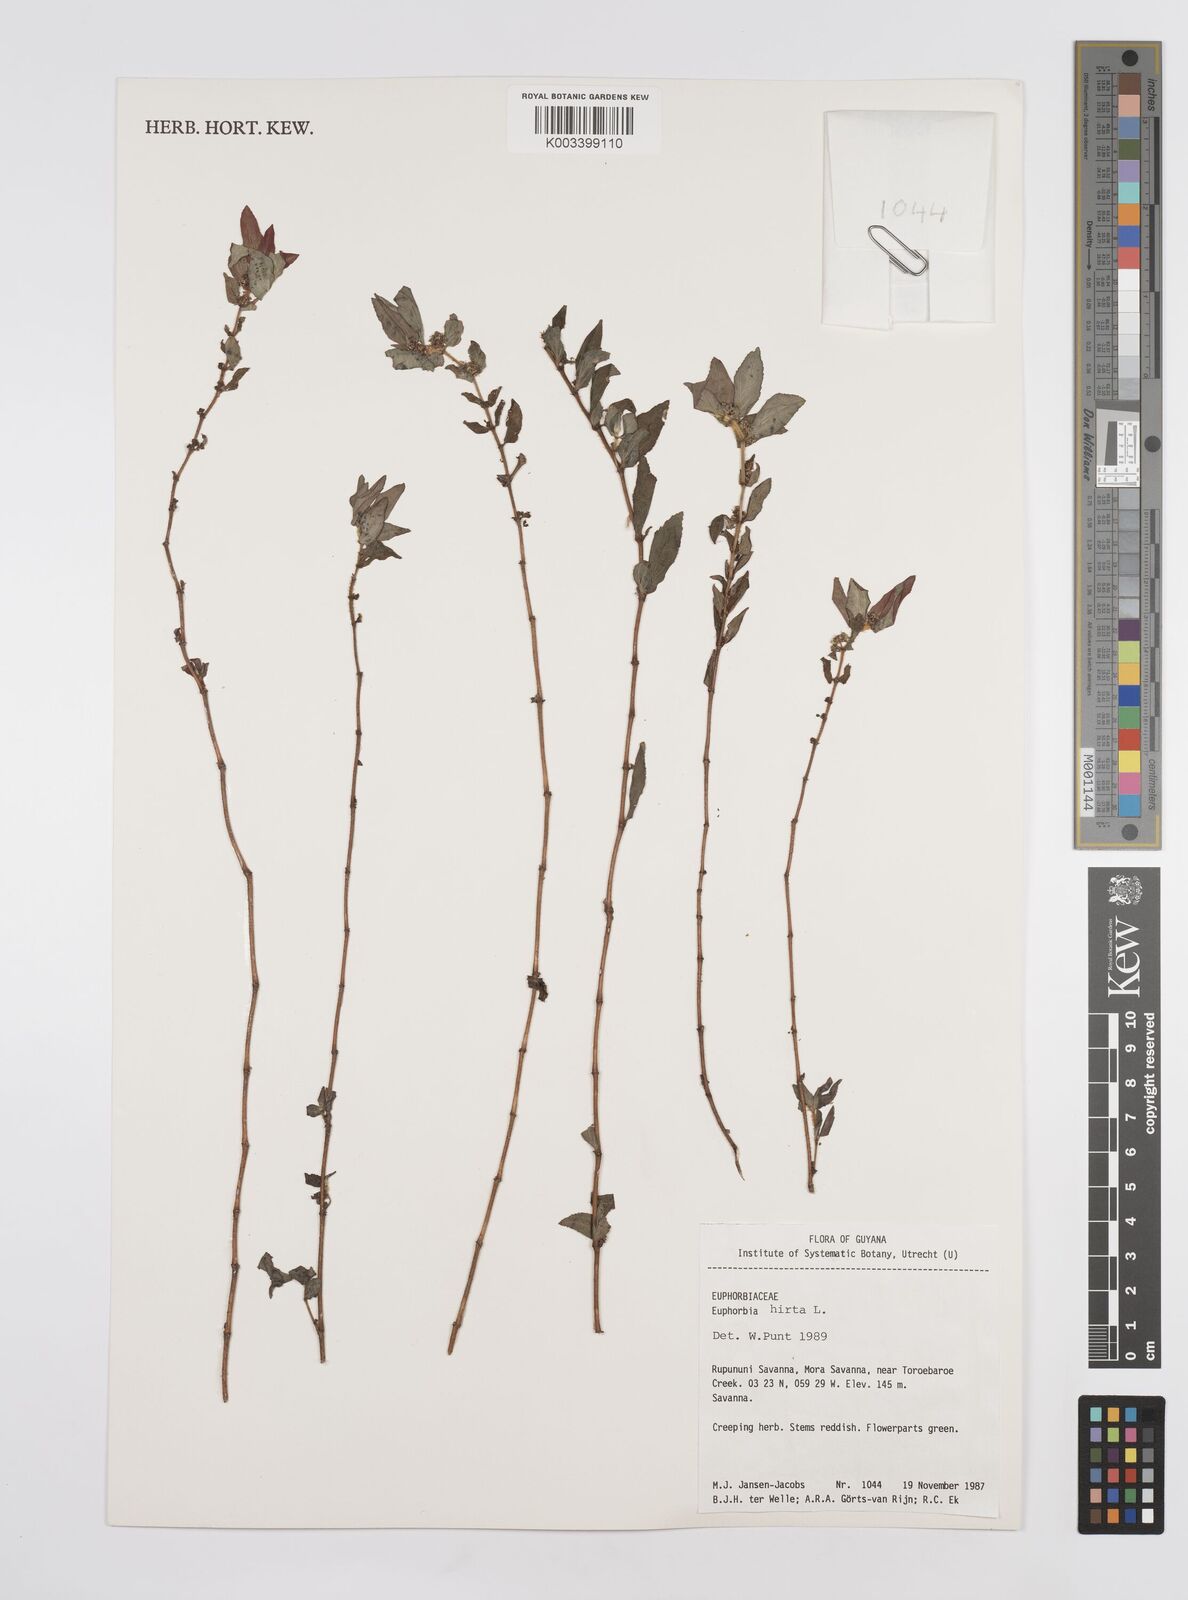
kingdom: Plantae
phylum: Tracheophyta
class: Magnoliopsida
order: Malpighiales
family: Euphorbiaceae
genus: Euphorbia
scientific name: Euphorbia hirta
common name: Pillpod sandmat
